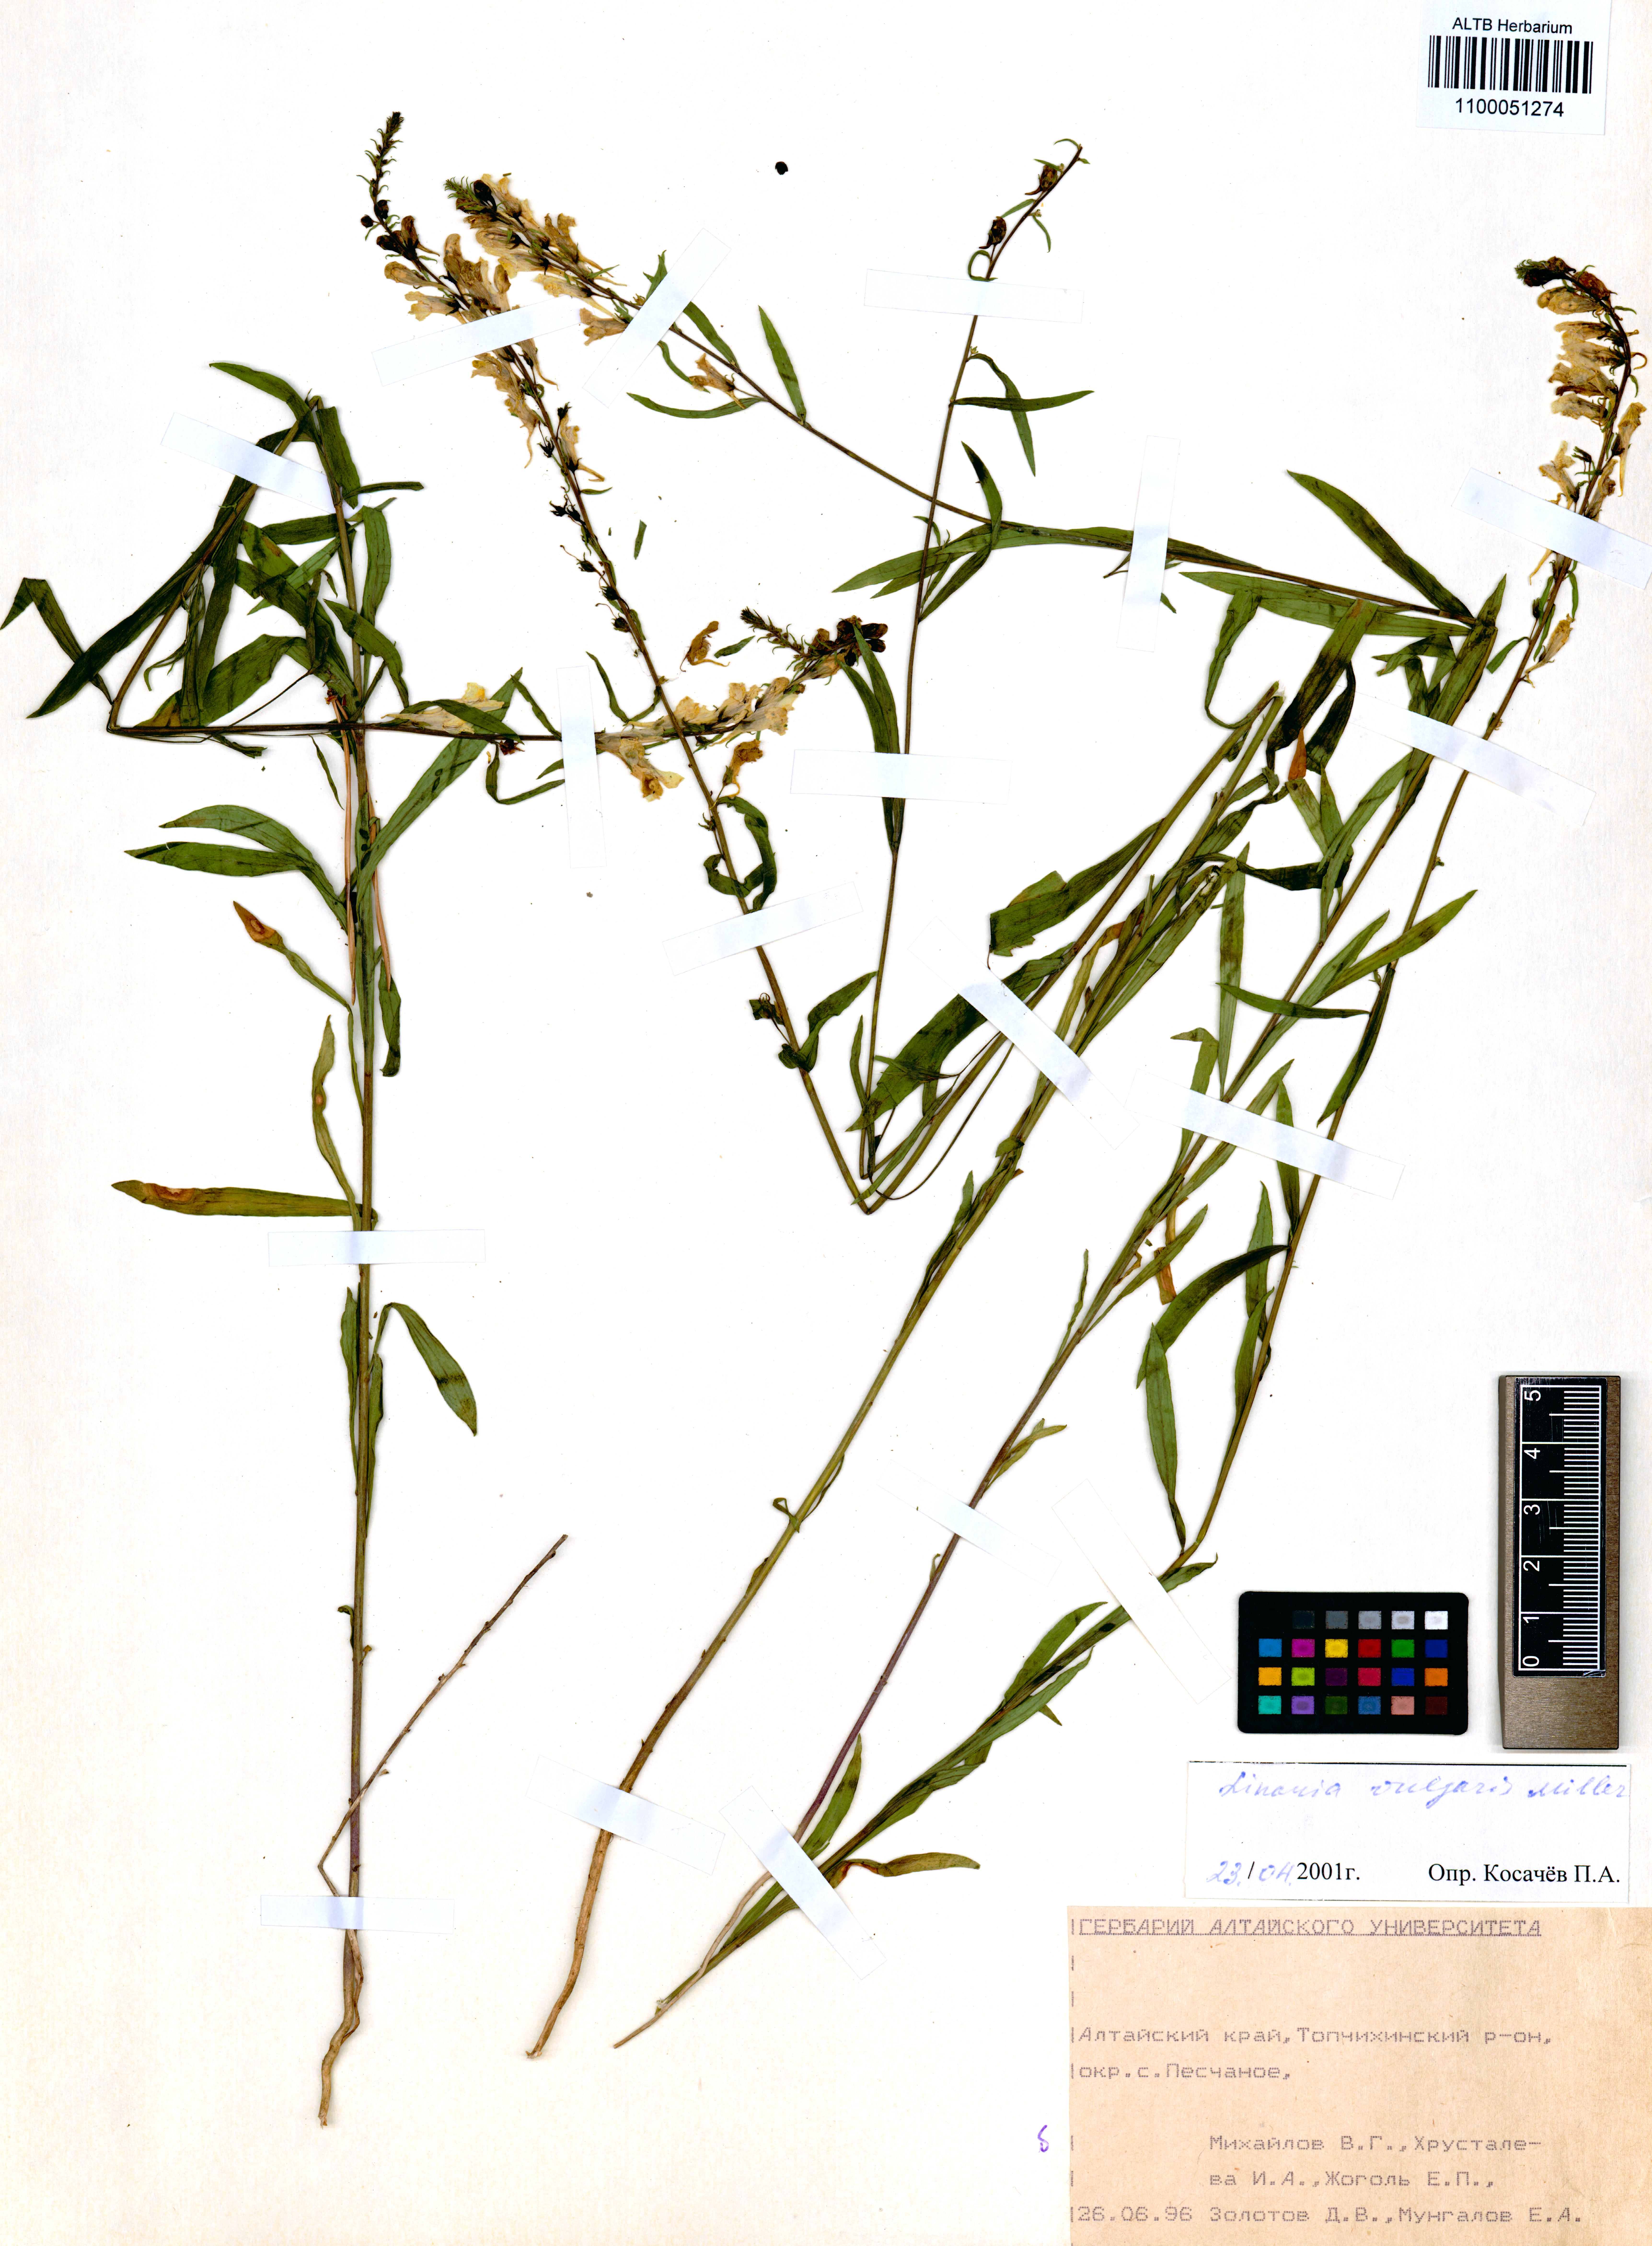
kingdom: Plantae
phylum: Tracheophyta
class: Magnoliopsida
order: Lamiales
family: Plantaginaceae
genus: Linaria
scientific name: Linaria vulgaris
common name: Butter and eggs
